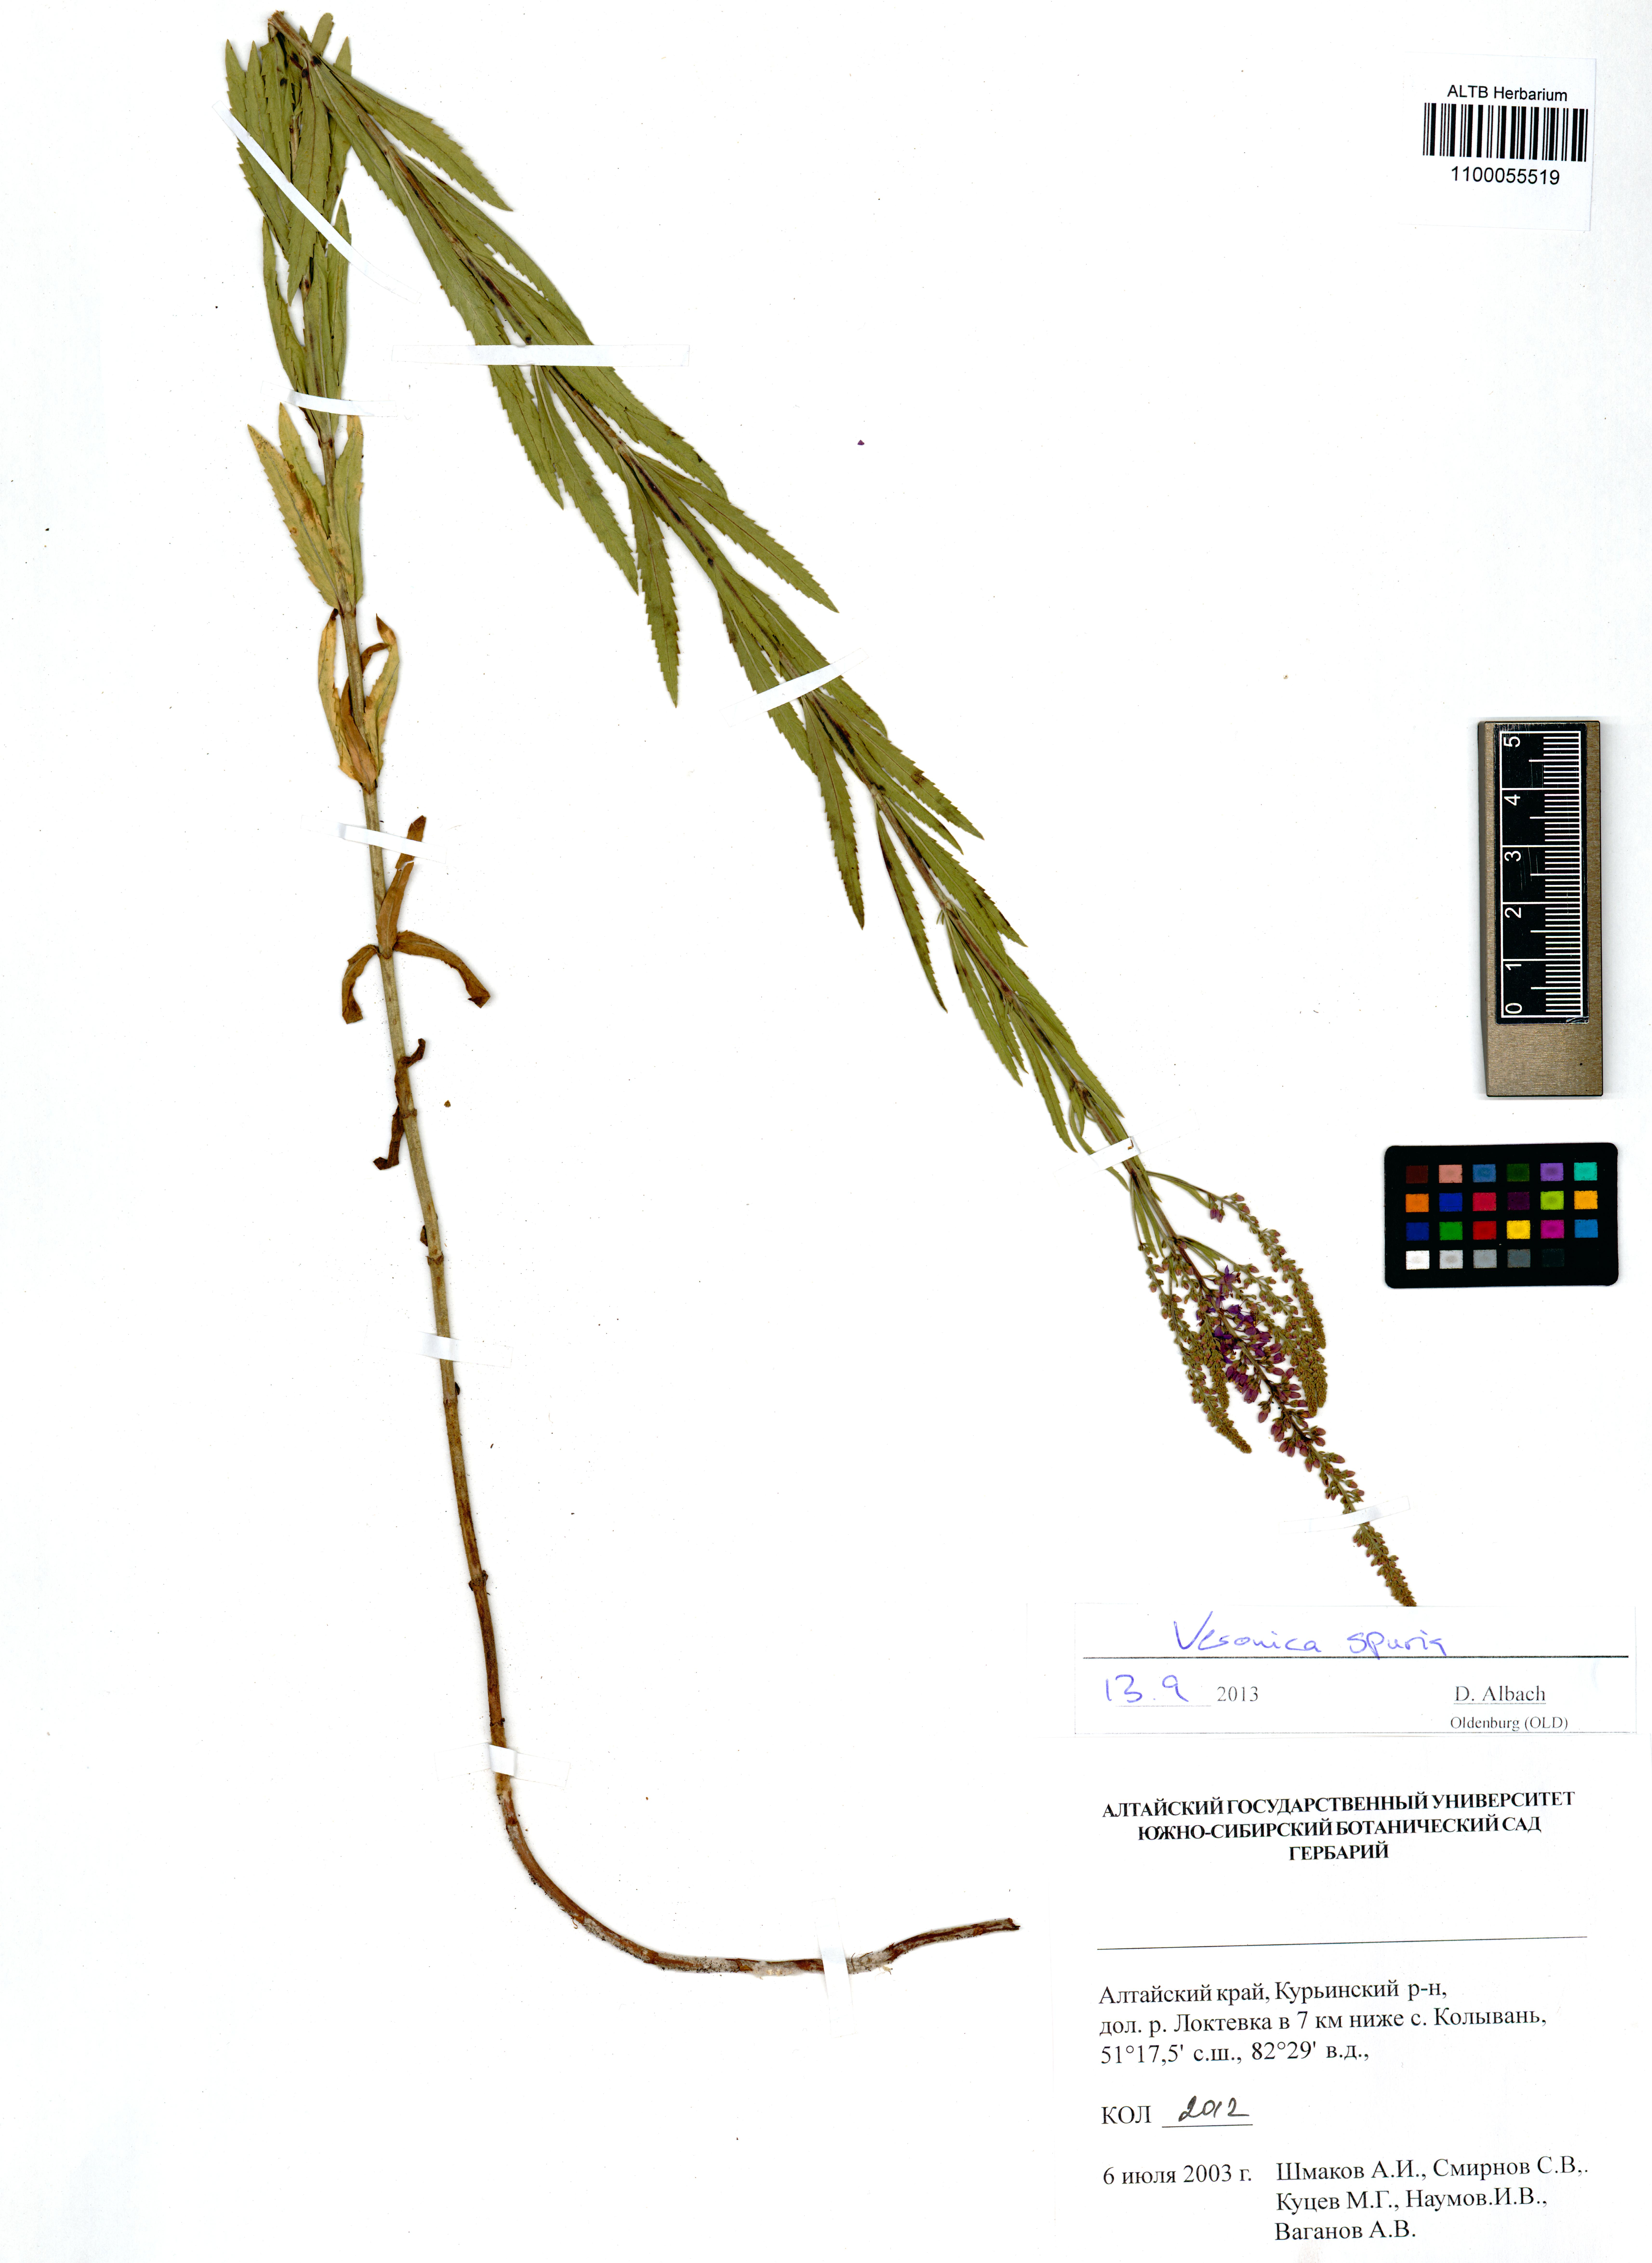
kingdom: Plantae
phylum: Tracheophyta
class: Magnoliopsida
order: Lamiales
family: Plantaginaceae
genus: Veronica
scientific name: Veronica spuria
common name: Bastard speedwell
